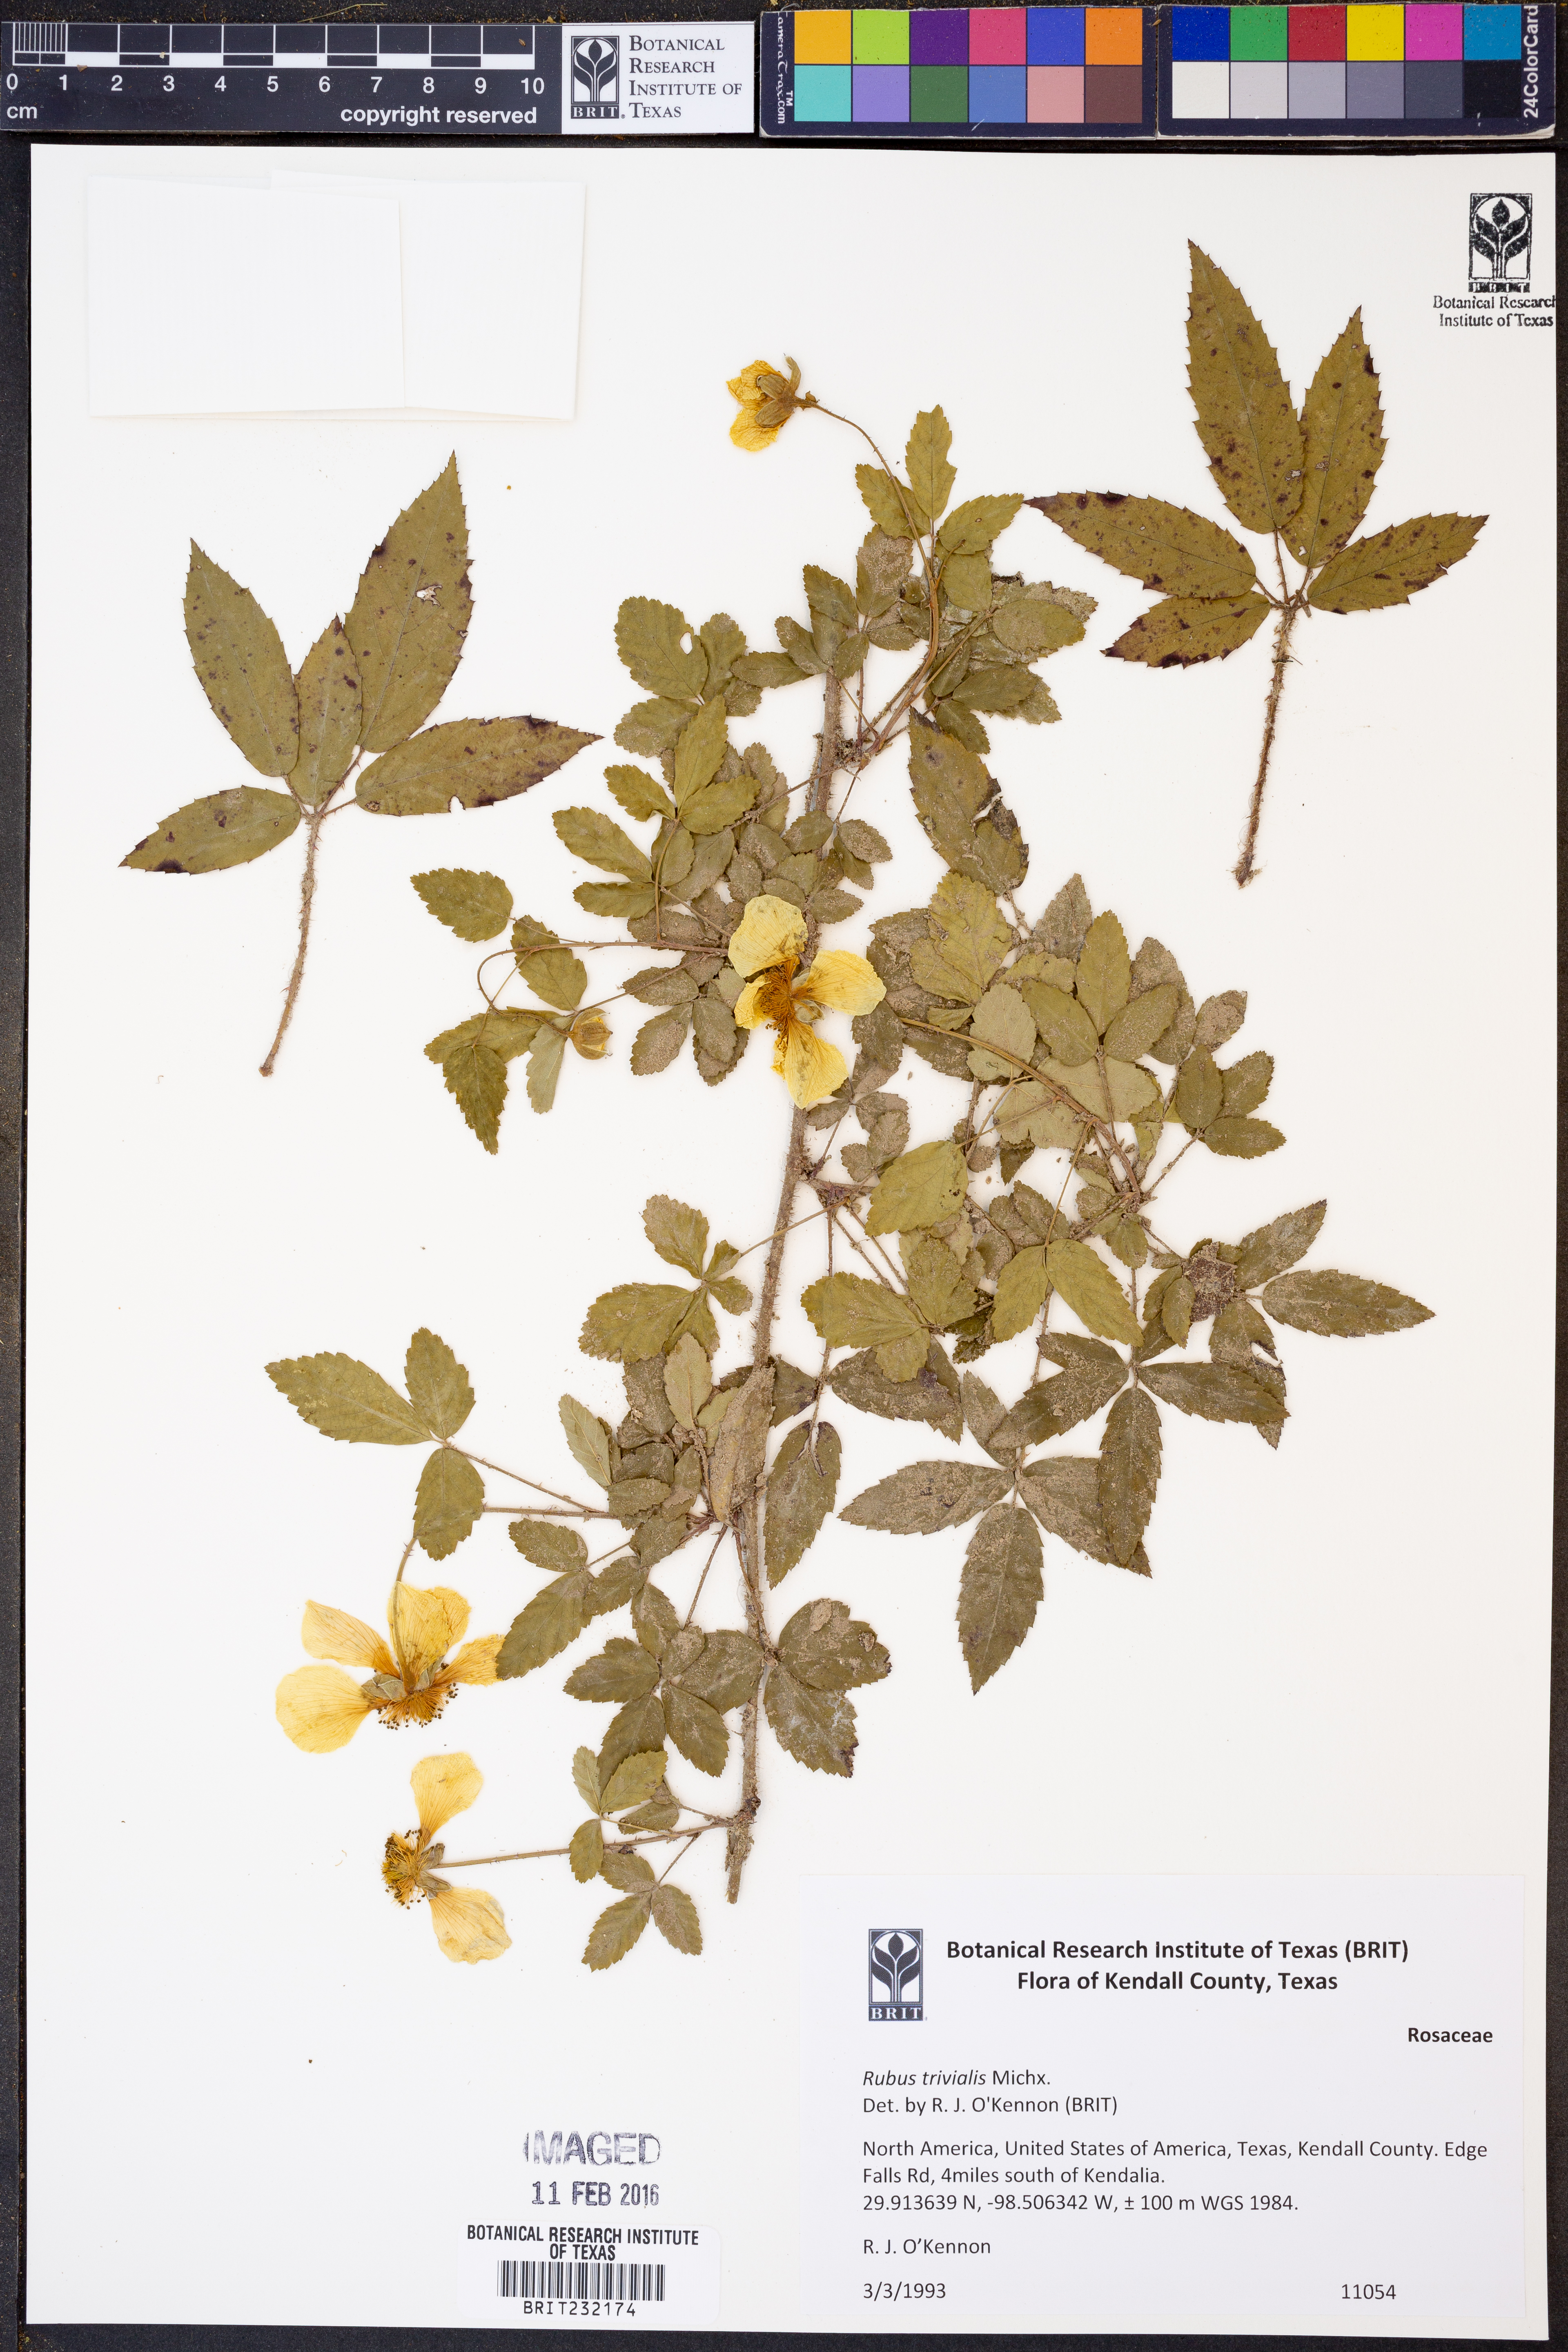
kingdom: Plantae
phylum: Tracheophyta
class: Magnoliopsida
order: Rosales
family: Rosaceae
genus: Rubus
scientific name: Rubus trivialis
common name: Southern dewberry
